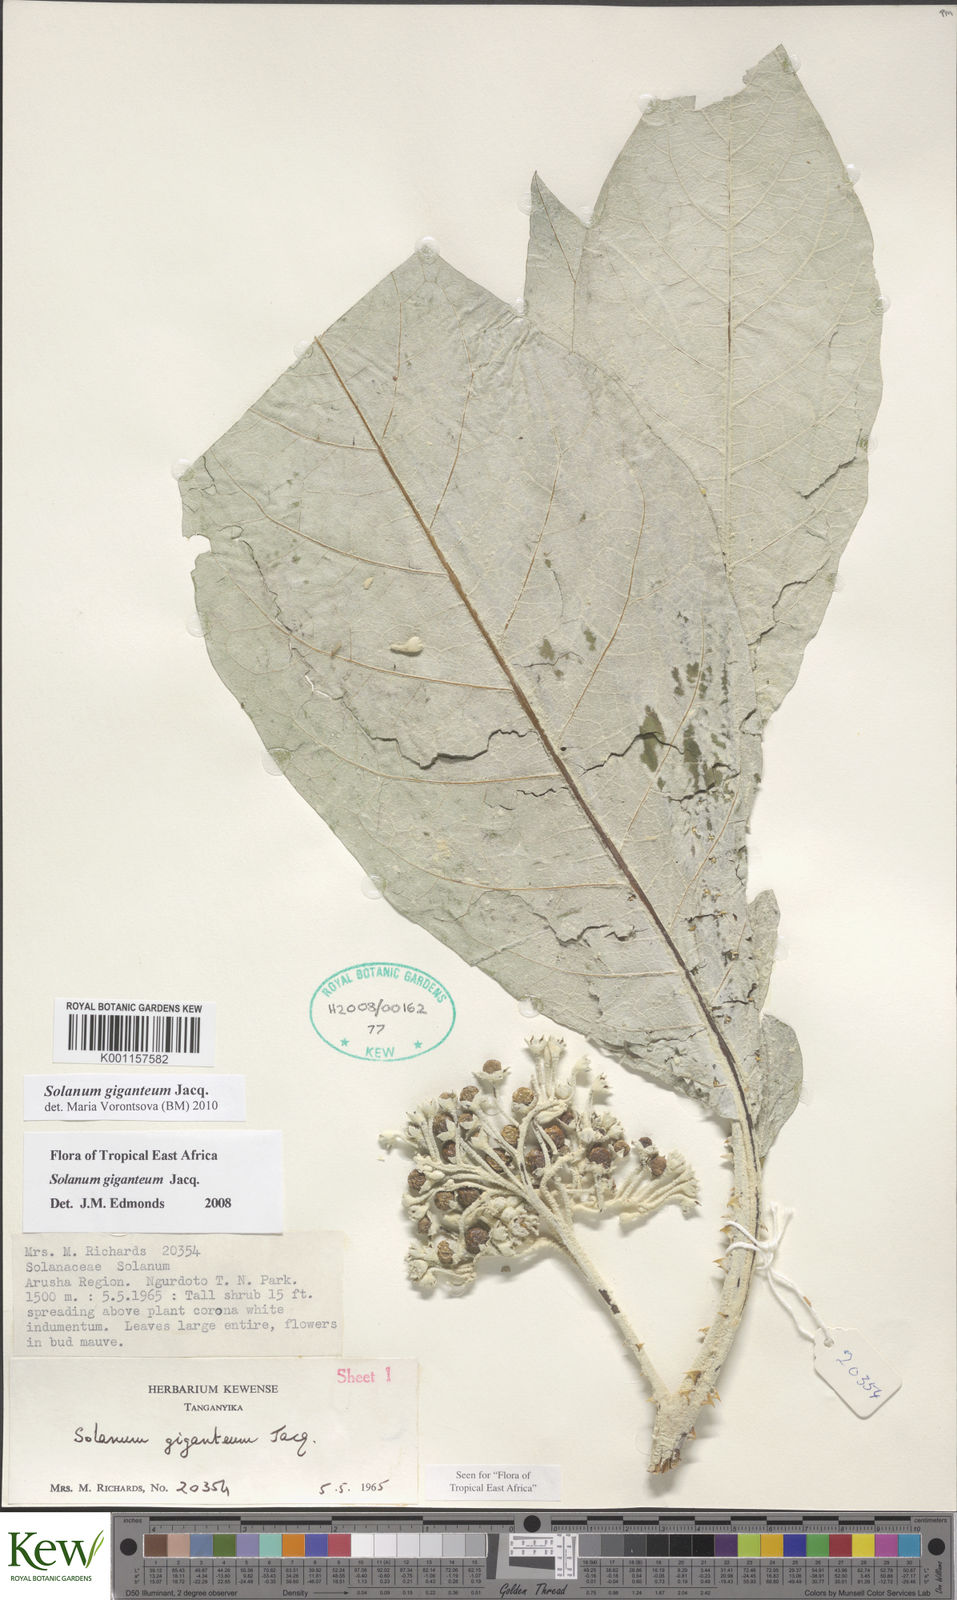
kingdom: Plantae
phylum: Tracheophyta
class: Magnoliopsida
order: Solanales
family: Solanaceae
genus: Solanum
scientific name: Solanum giganteum
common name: Healing-leaf-tree
